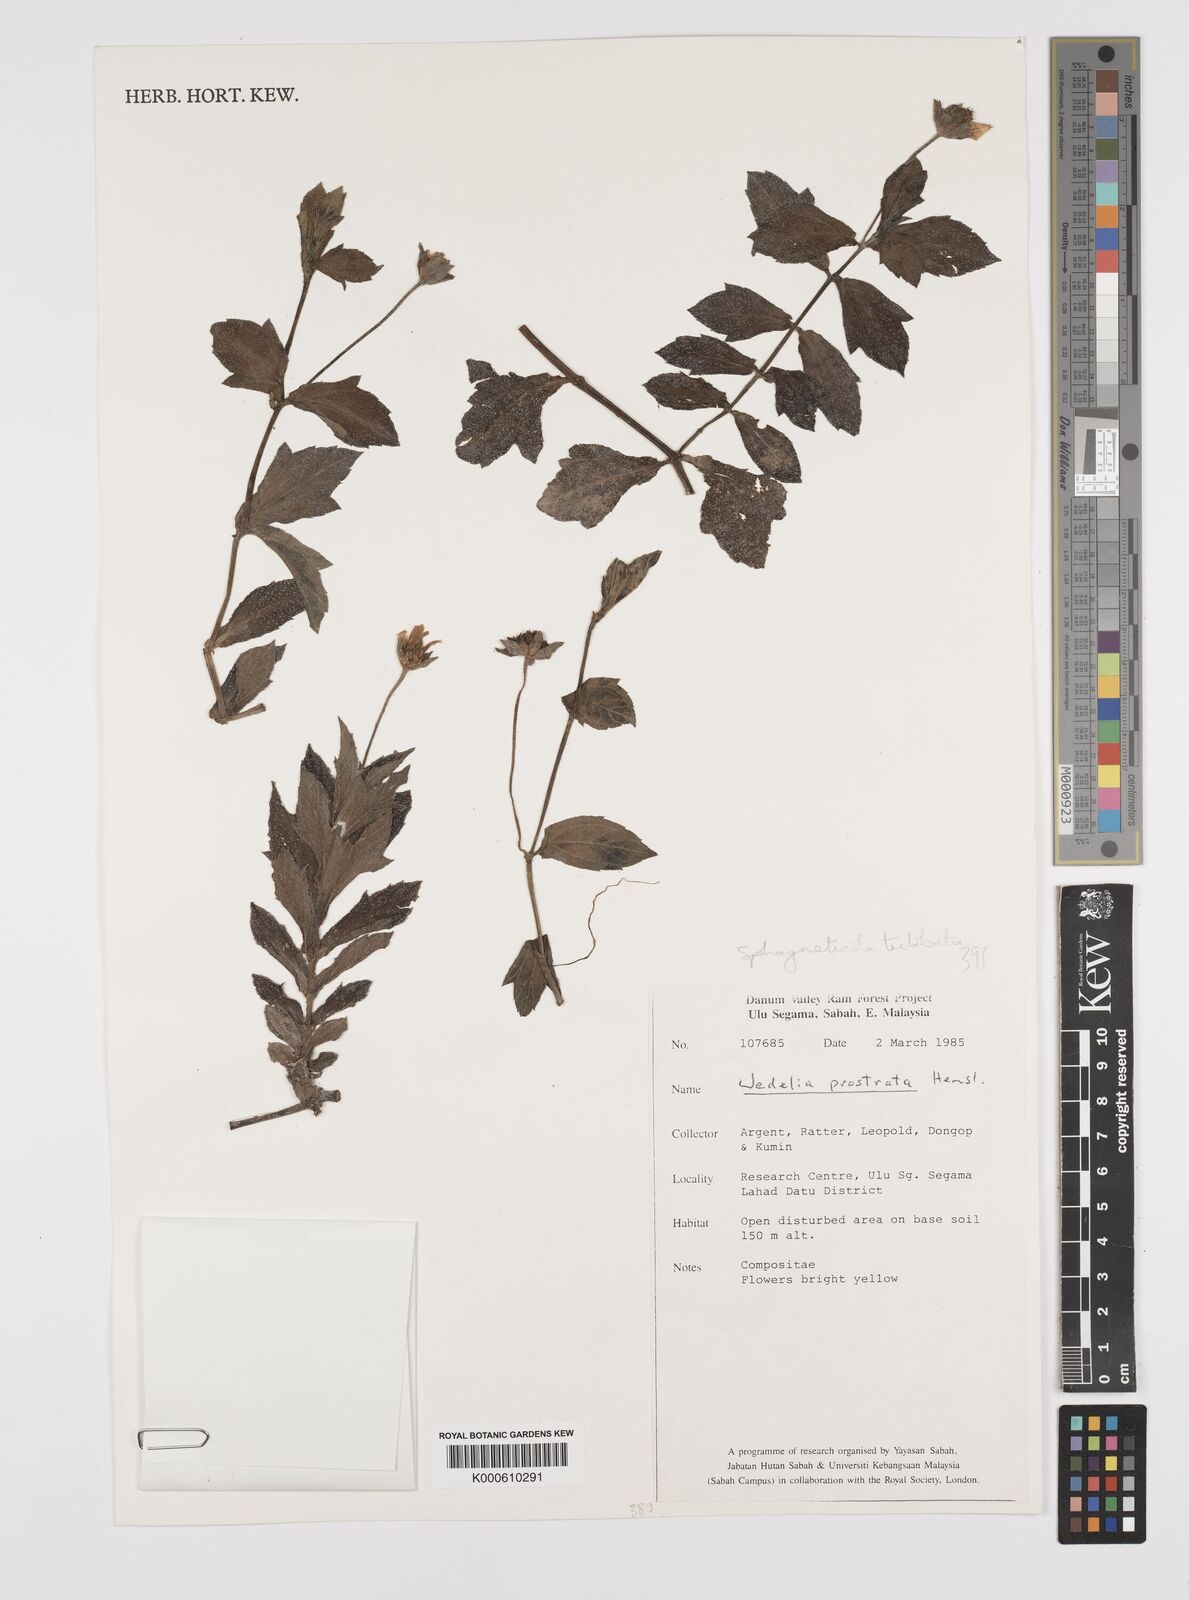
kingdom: Plantae
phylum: Tracheophyta
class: Magnoliopsida
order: Asterales
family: Asteraceae
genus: Sphagneticola
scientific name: Sphagneticola trilobata
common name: Bay biscayne creeping-oxeye
